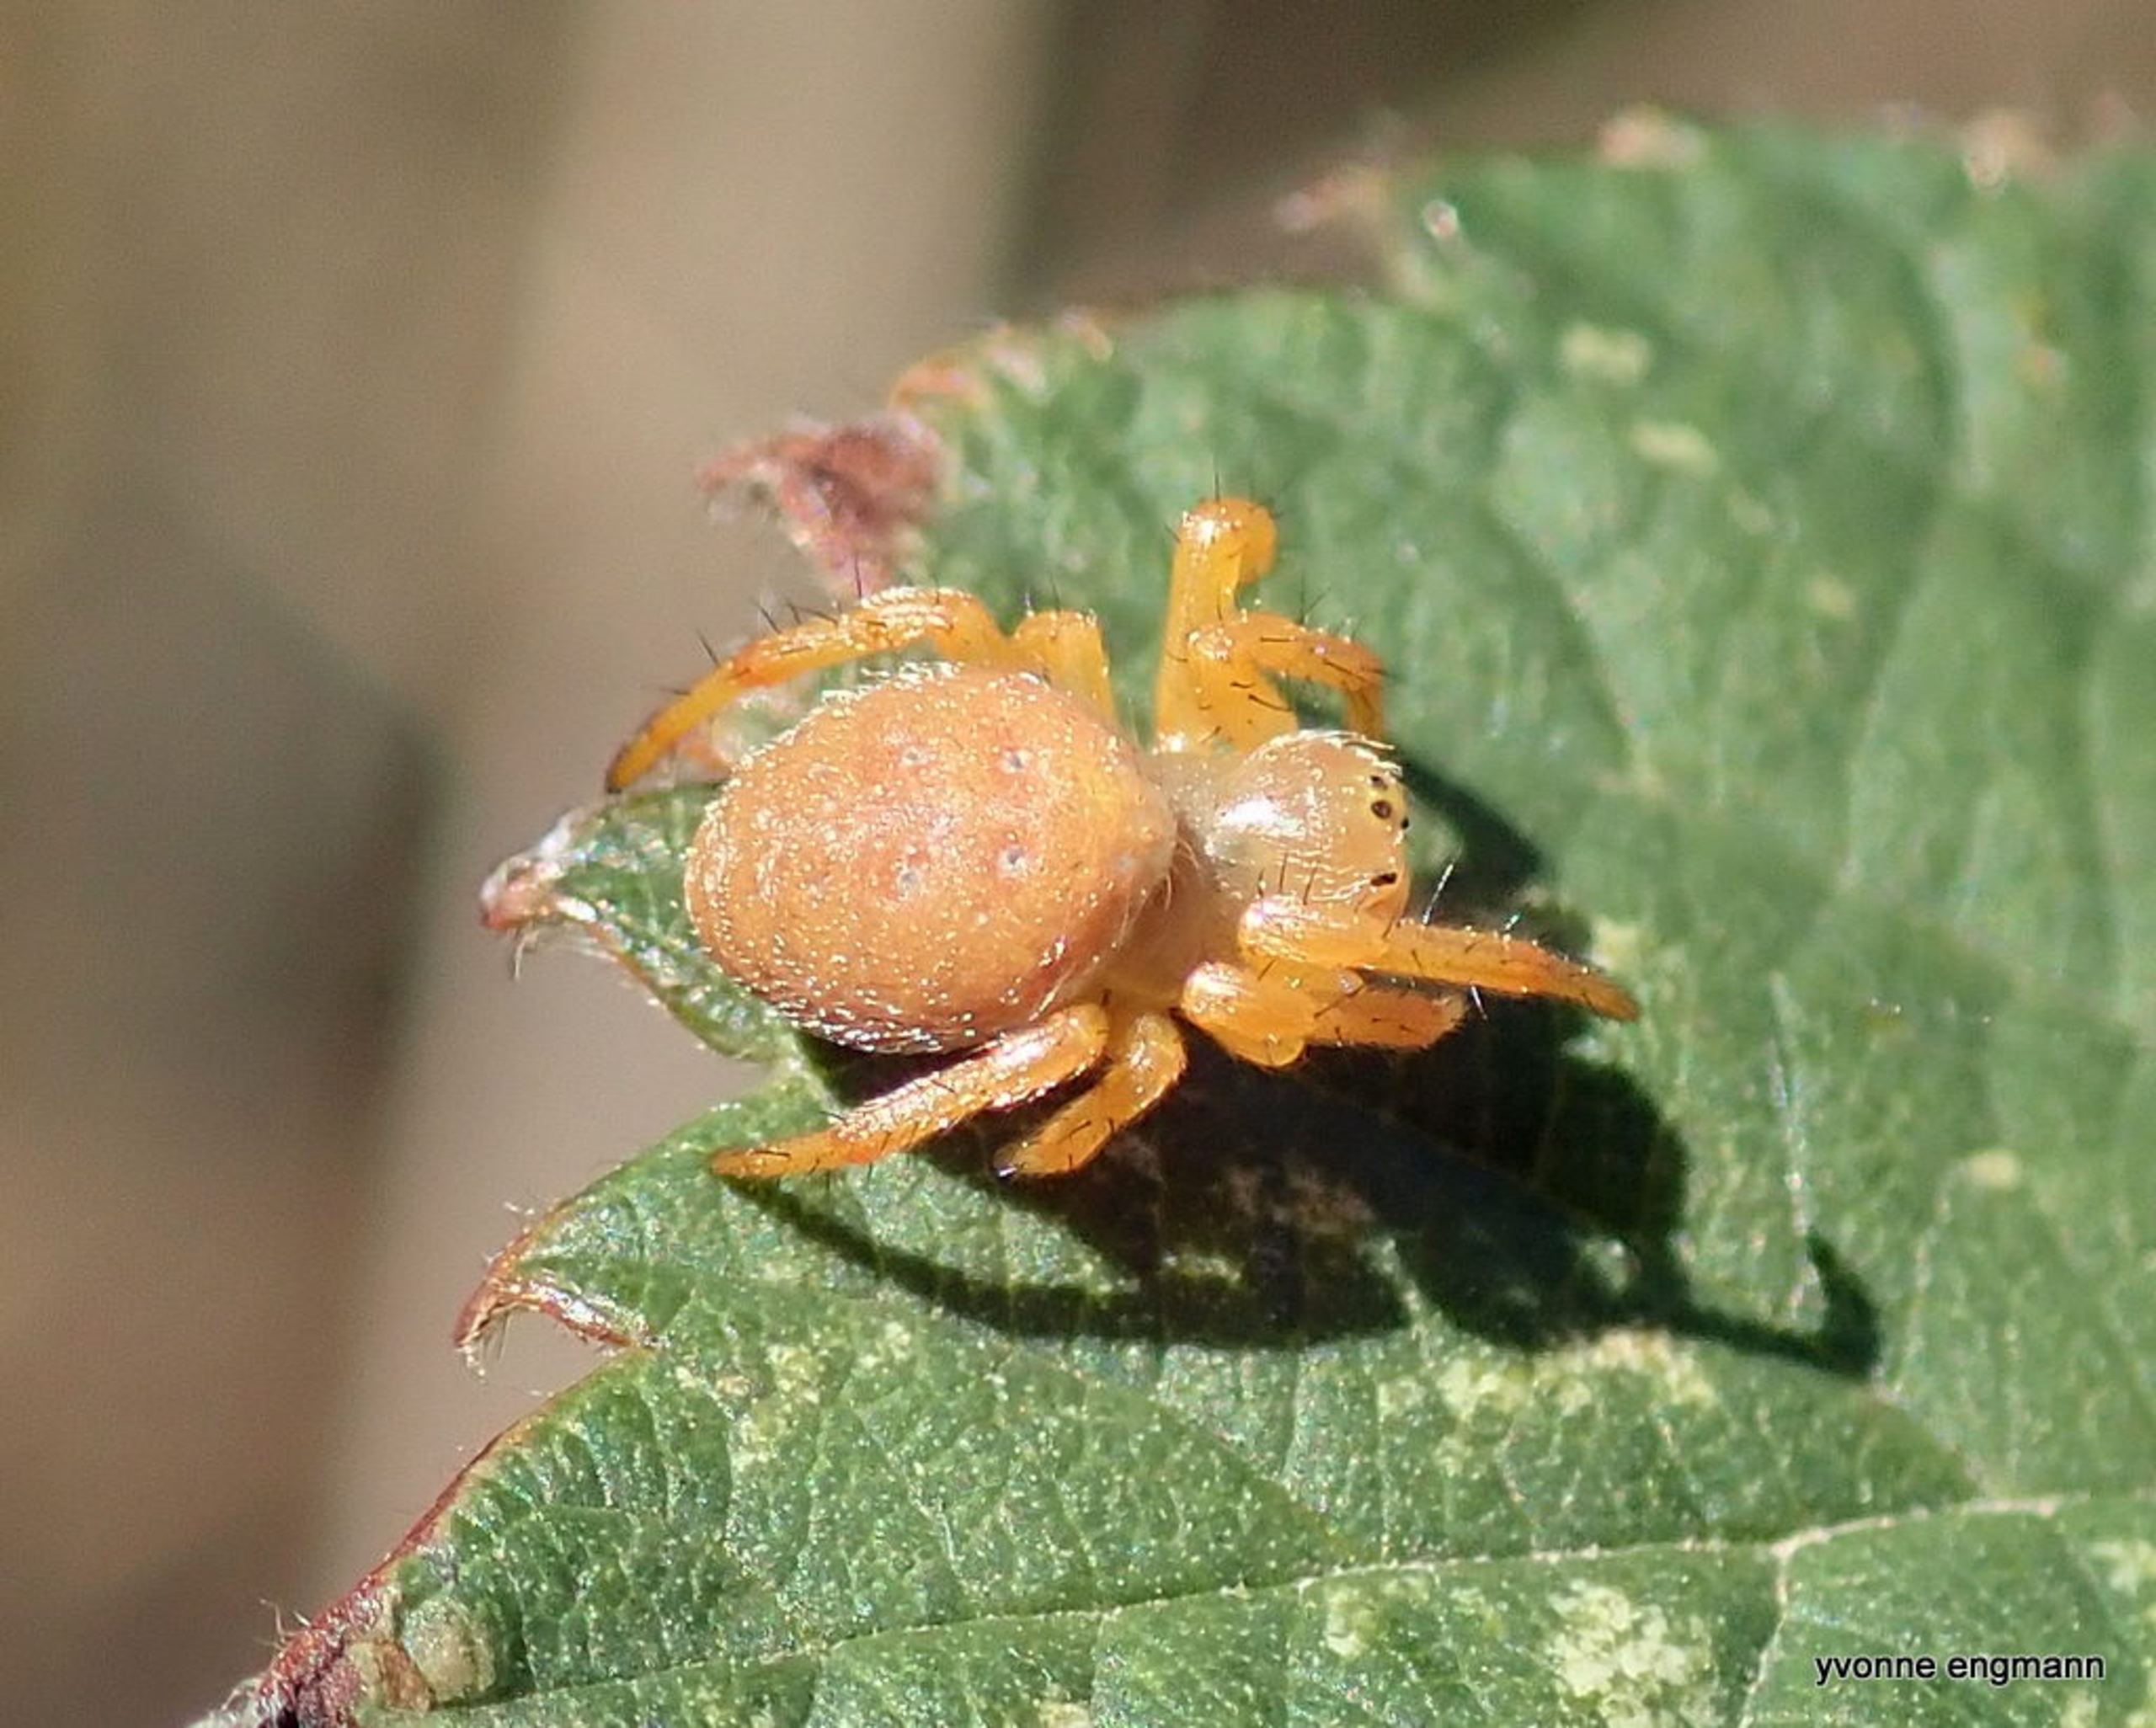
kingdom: Animalia
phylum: Arthropoda
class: Arachnida
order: Araneae
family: Araneidae
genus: Araniella
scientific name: Araniella
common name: Agurkeedderkopslægten
